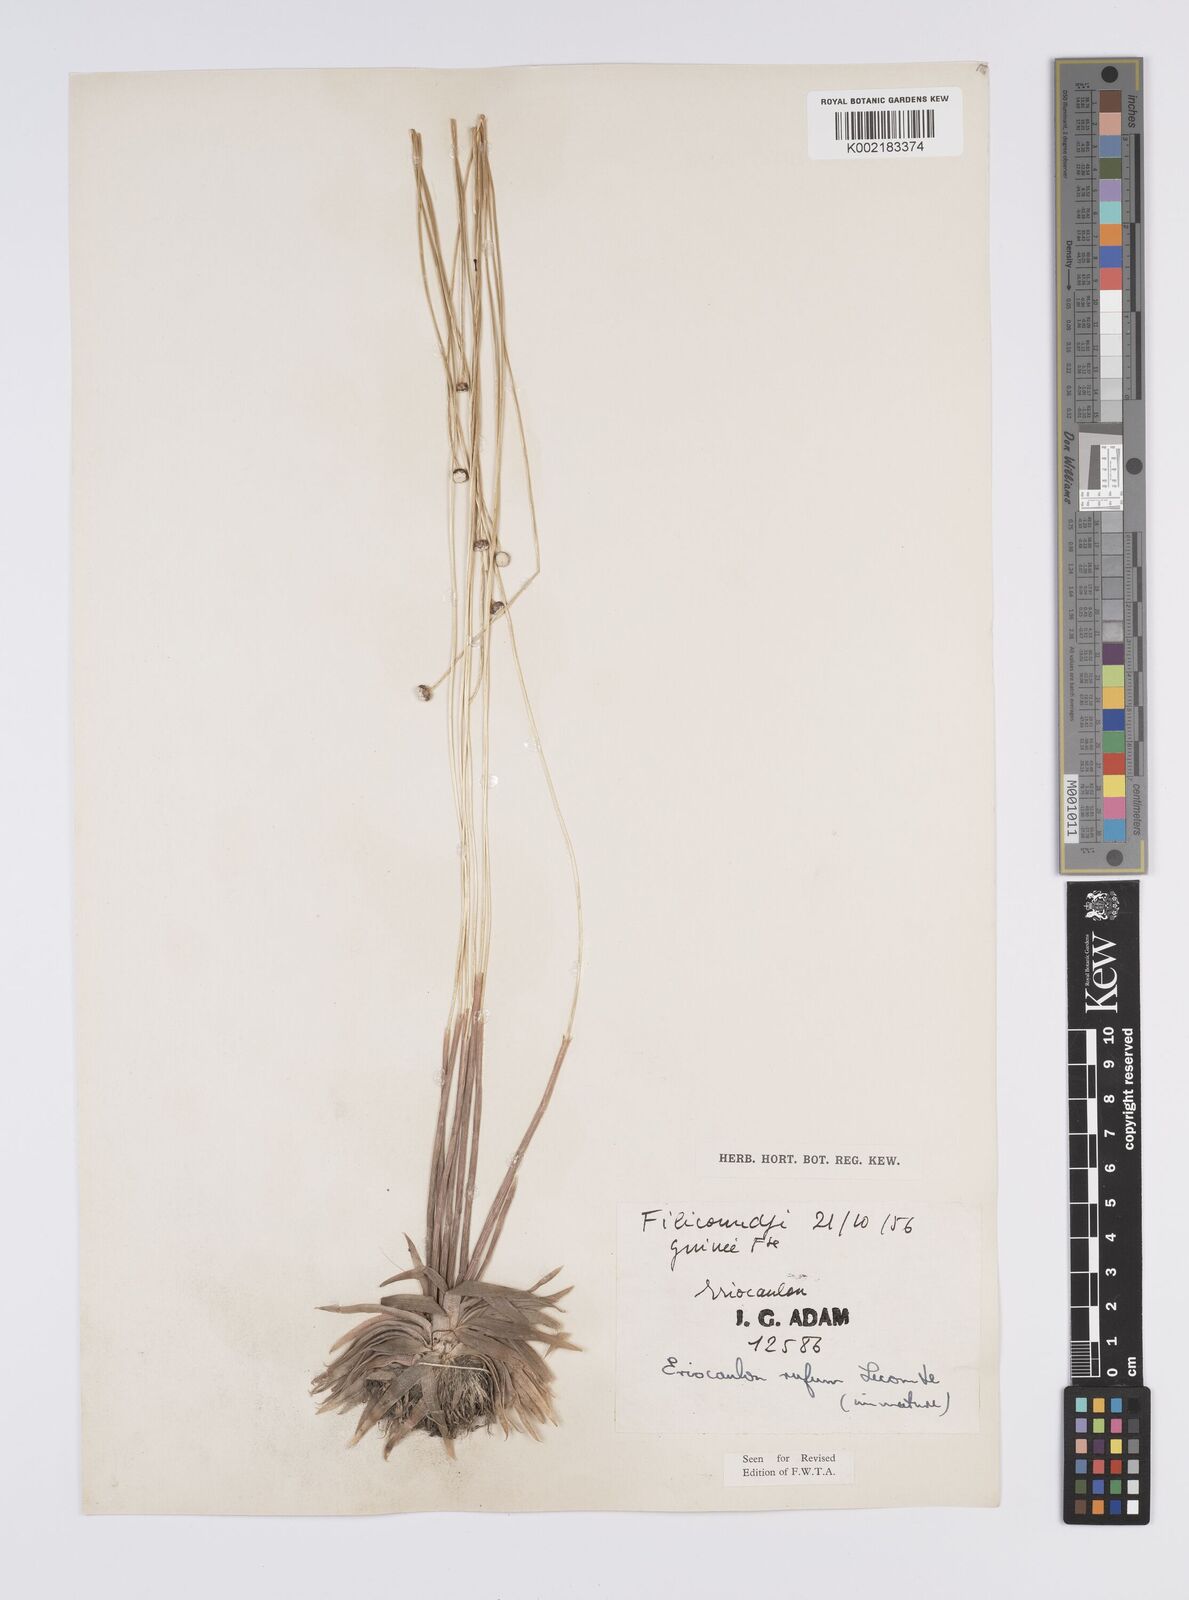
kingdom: Plantae
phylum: Tracheophyta
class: Liliopsida
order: Poales
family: Eriocaulaceae
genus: Eriocaulon
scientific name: Eriocaulon rufum
